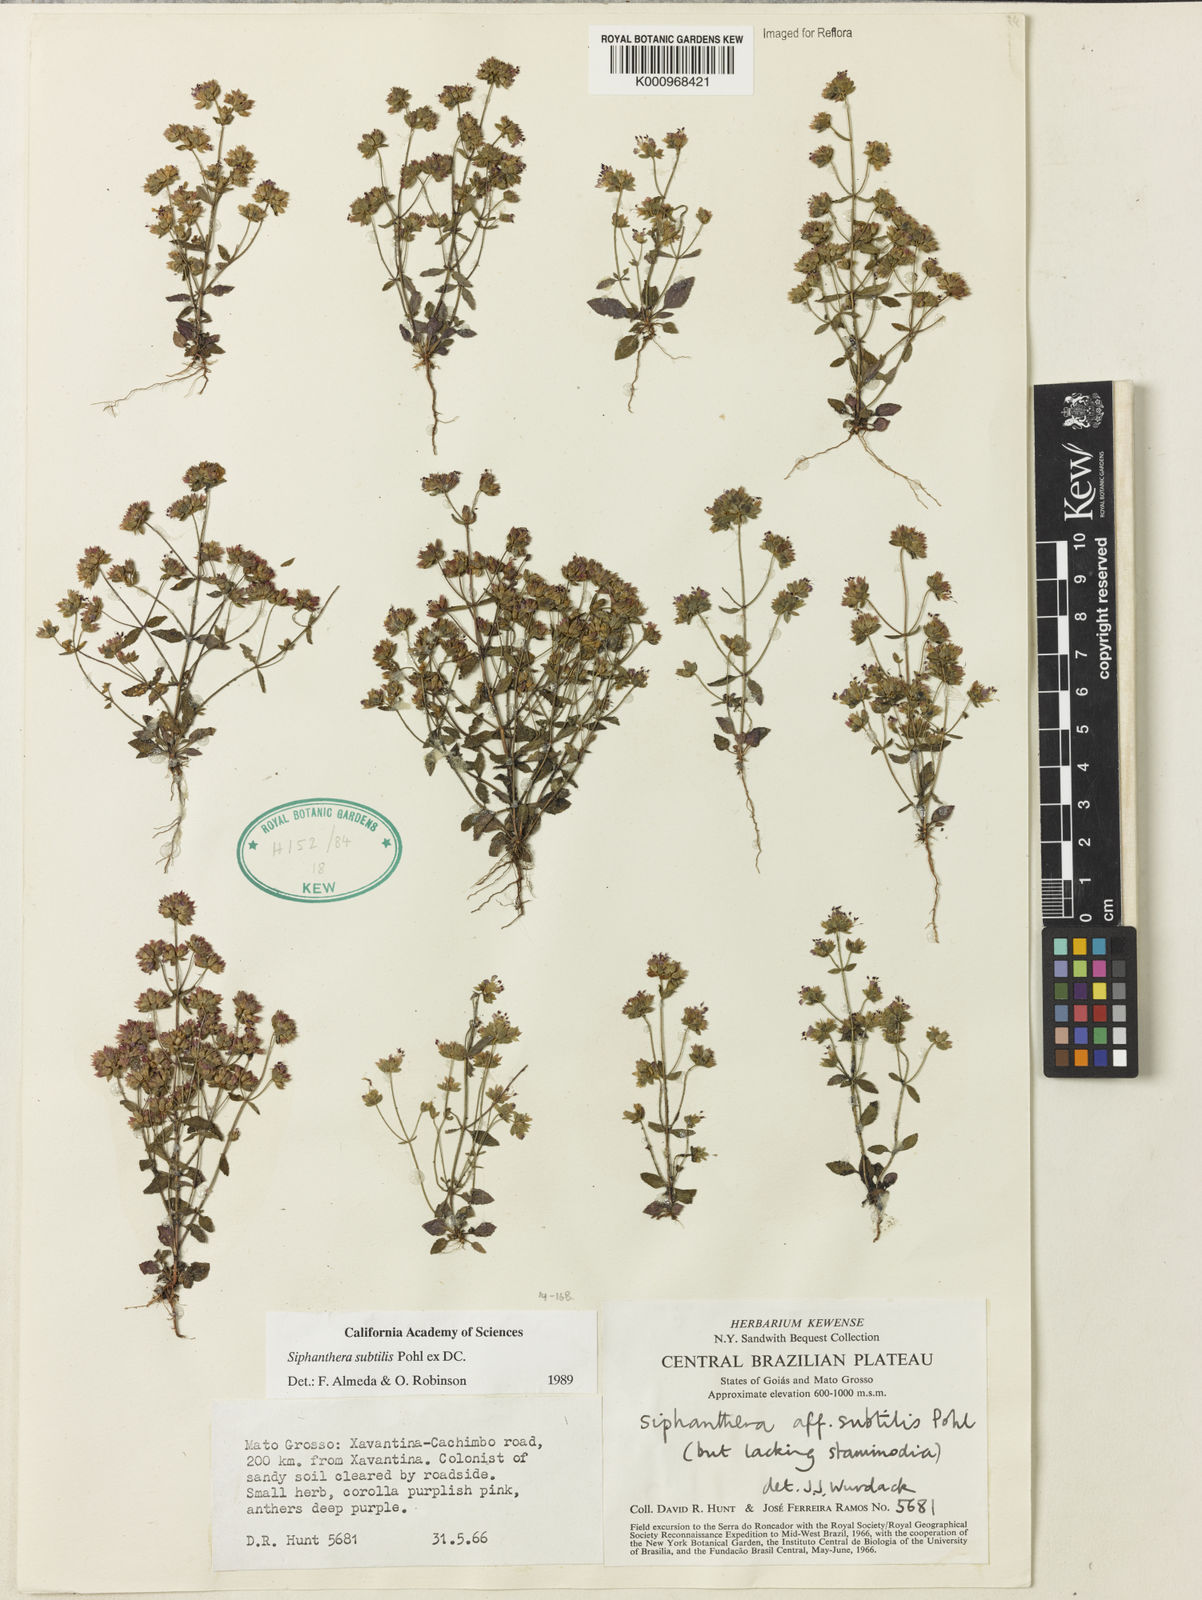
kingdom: Plantae
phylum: Tracheophyta
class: Magnoliopsida
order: Myrtales
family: Melastomataceae
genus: Siphanthera
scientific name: Siphanthera
